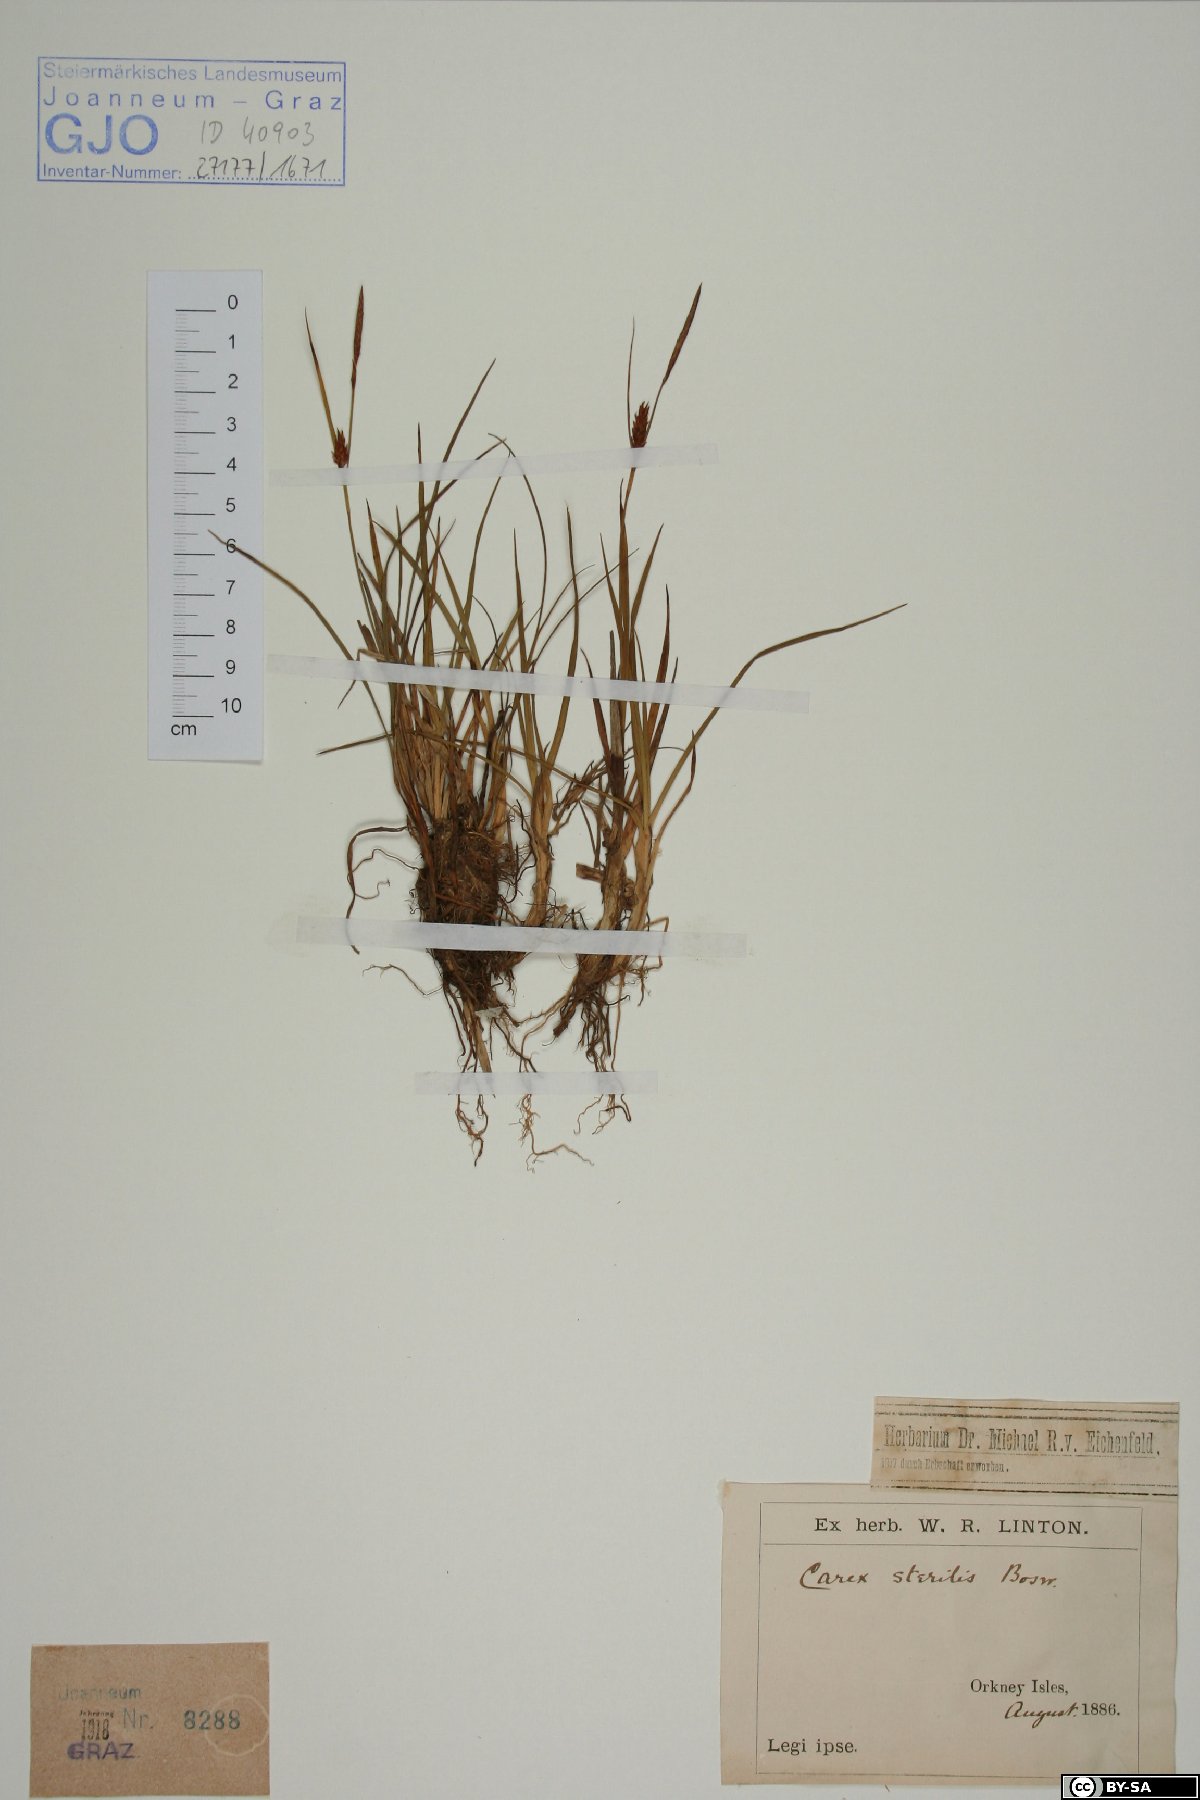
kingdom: Plantae
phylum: Tracheophyta
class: Liliopsida
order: Poales
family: Cyperaceae
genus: Carex
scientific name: Carex sterilis
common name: Dioecious sedge
